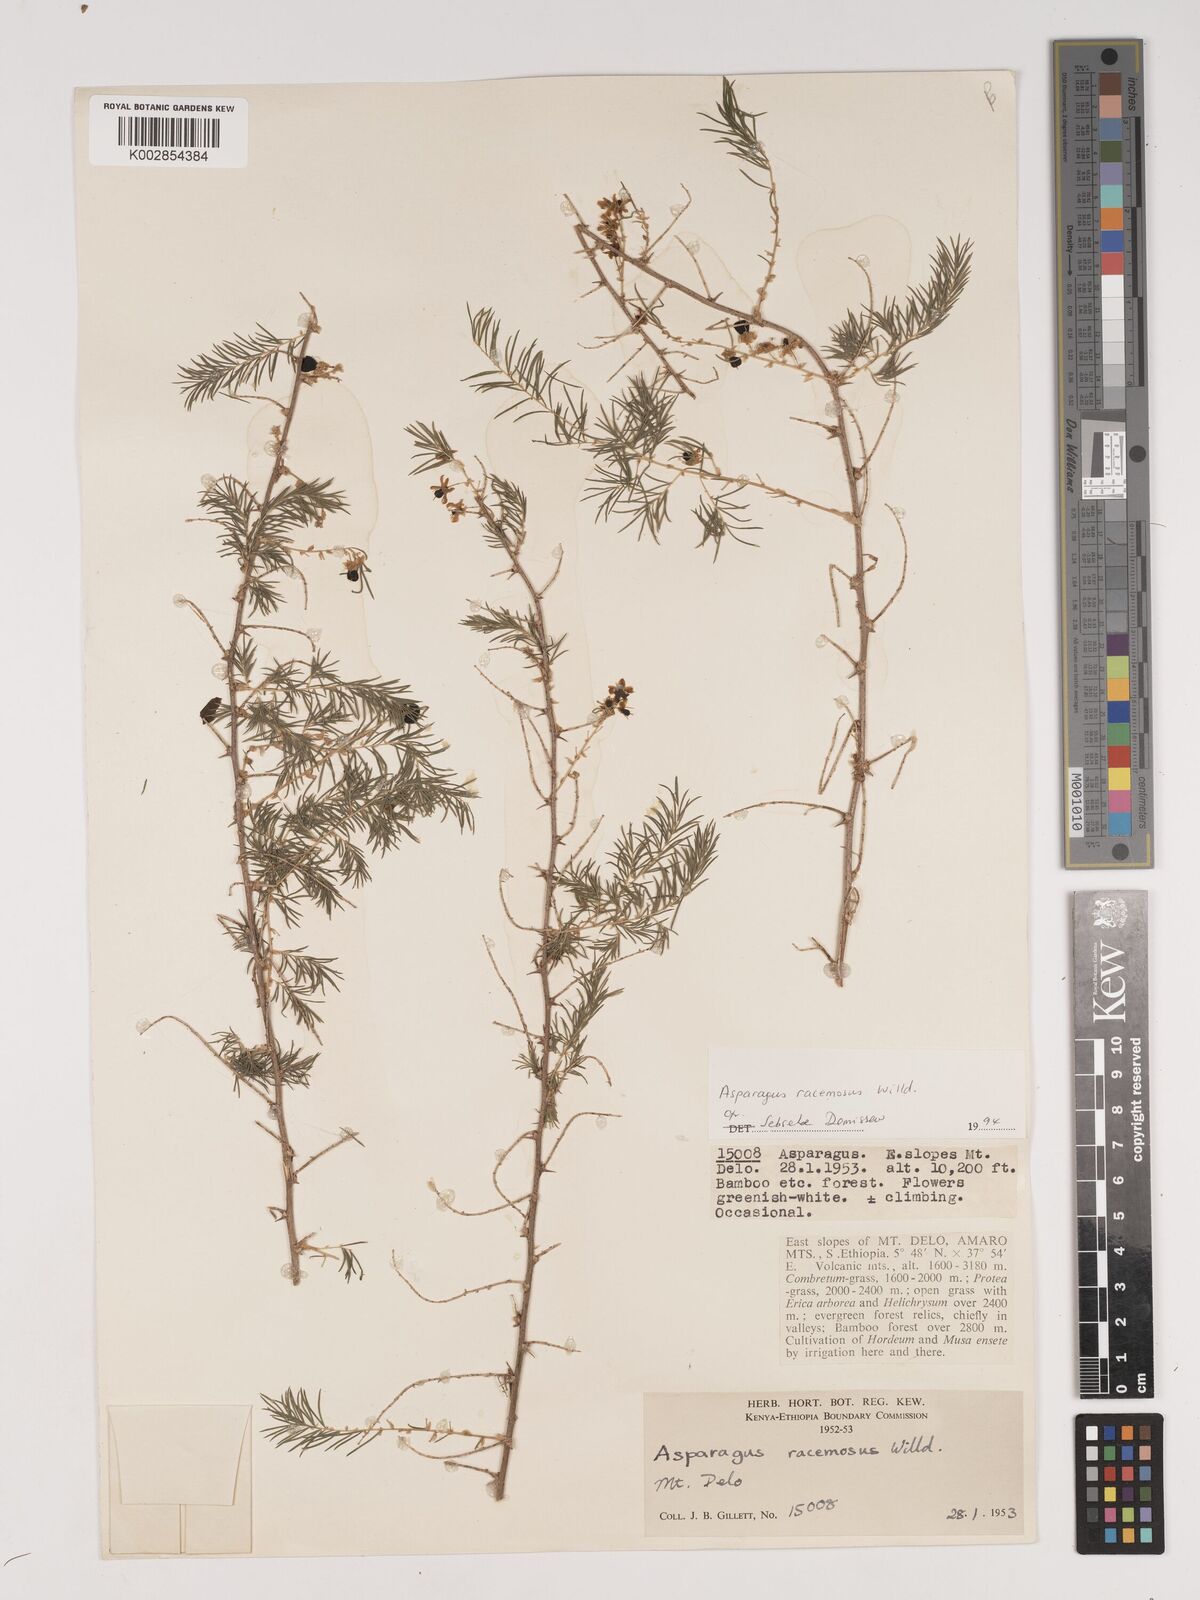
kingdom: Plantae
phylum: Tracheophyta
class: Liliopsida
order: Asparagales
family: Asparagaceae
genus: Asparagus
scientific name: Asparagus racemosus
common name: Asparagus-fern
